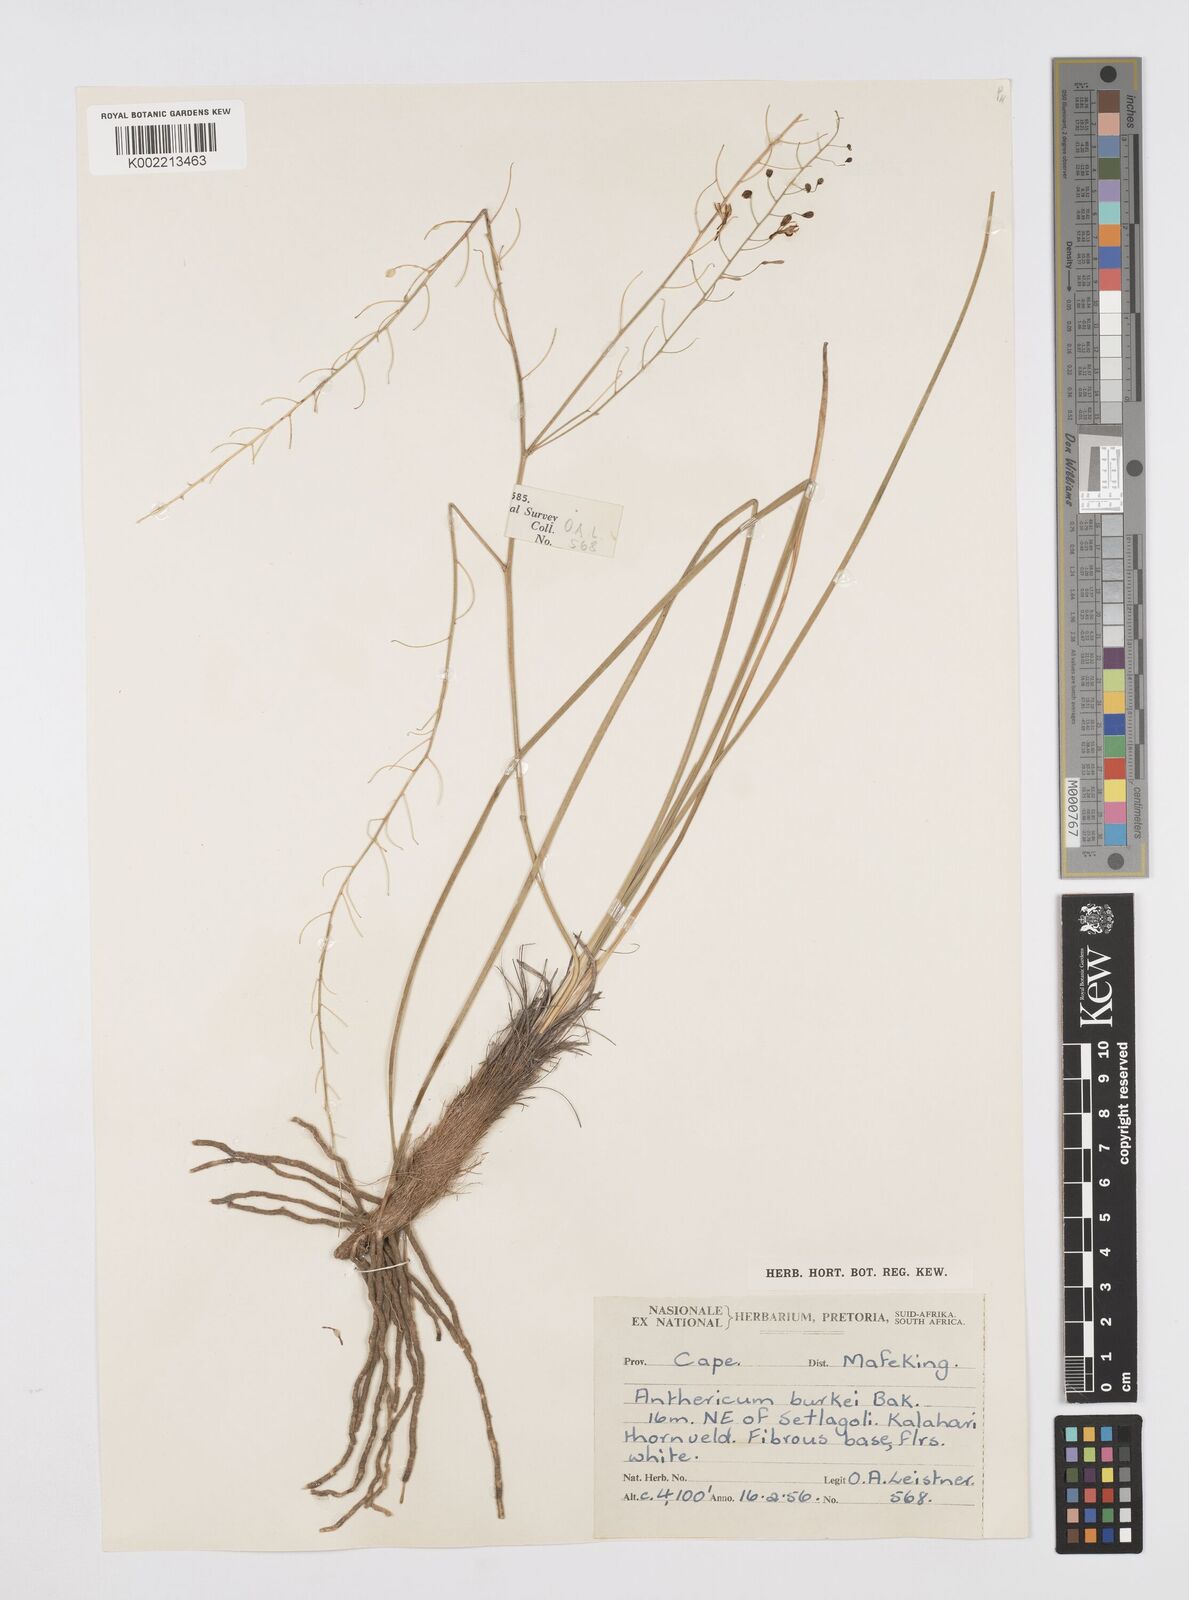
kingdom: Plantae
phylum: Tracheophyta
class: Liliopsida
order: Asparagales
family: Asphodelaceae
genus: Trachyandra
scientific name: Trachyandra burkei
